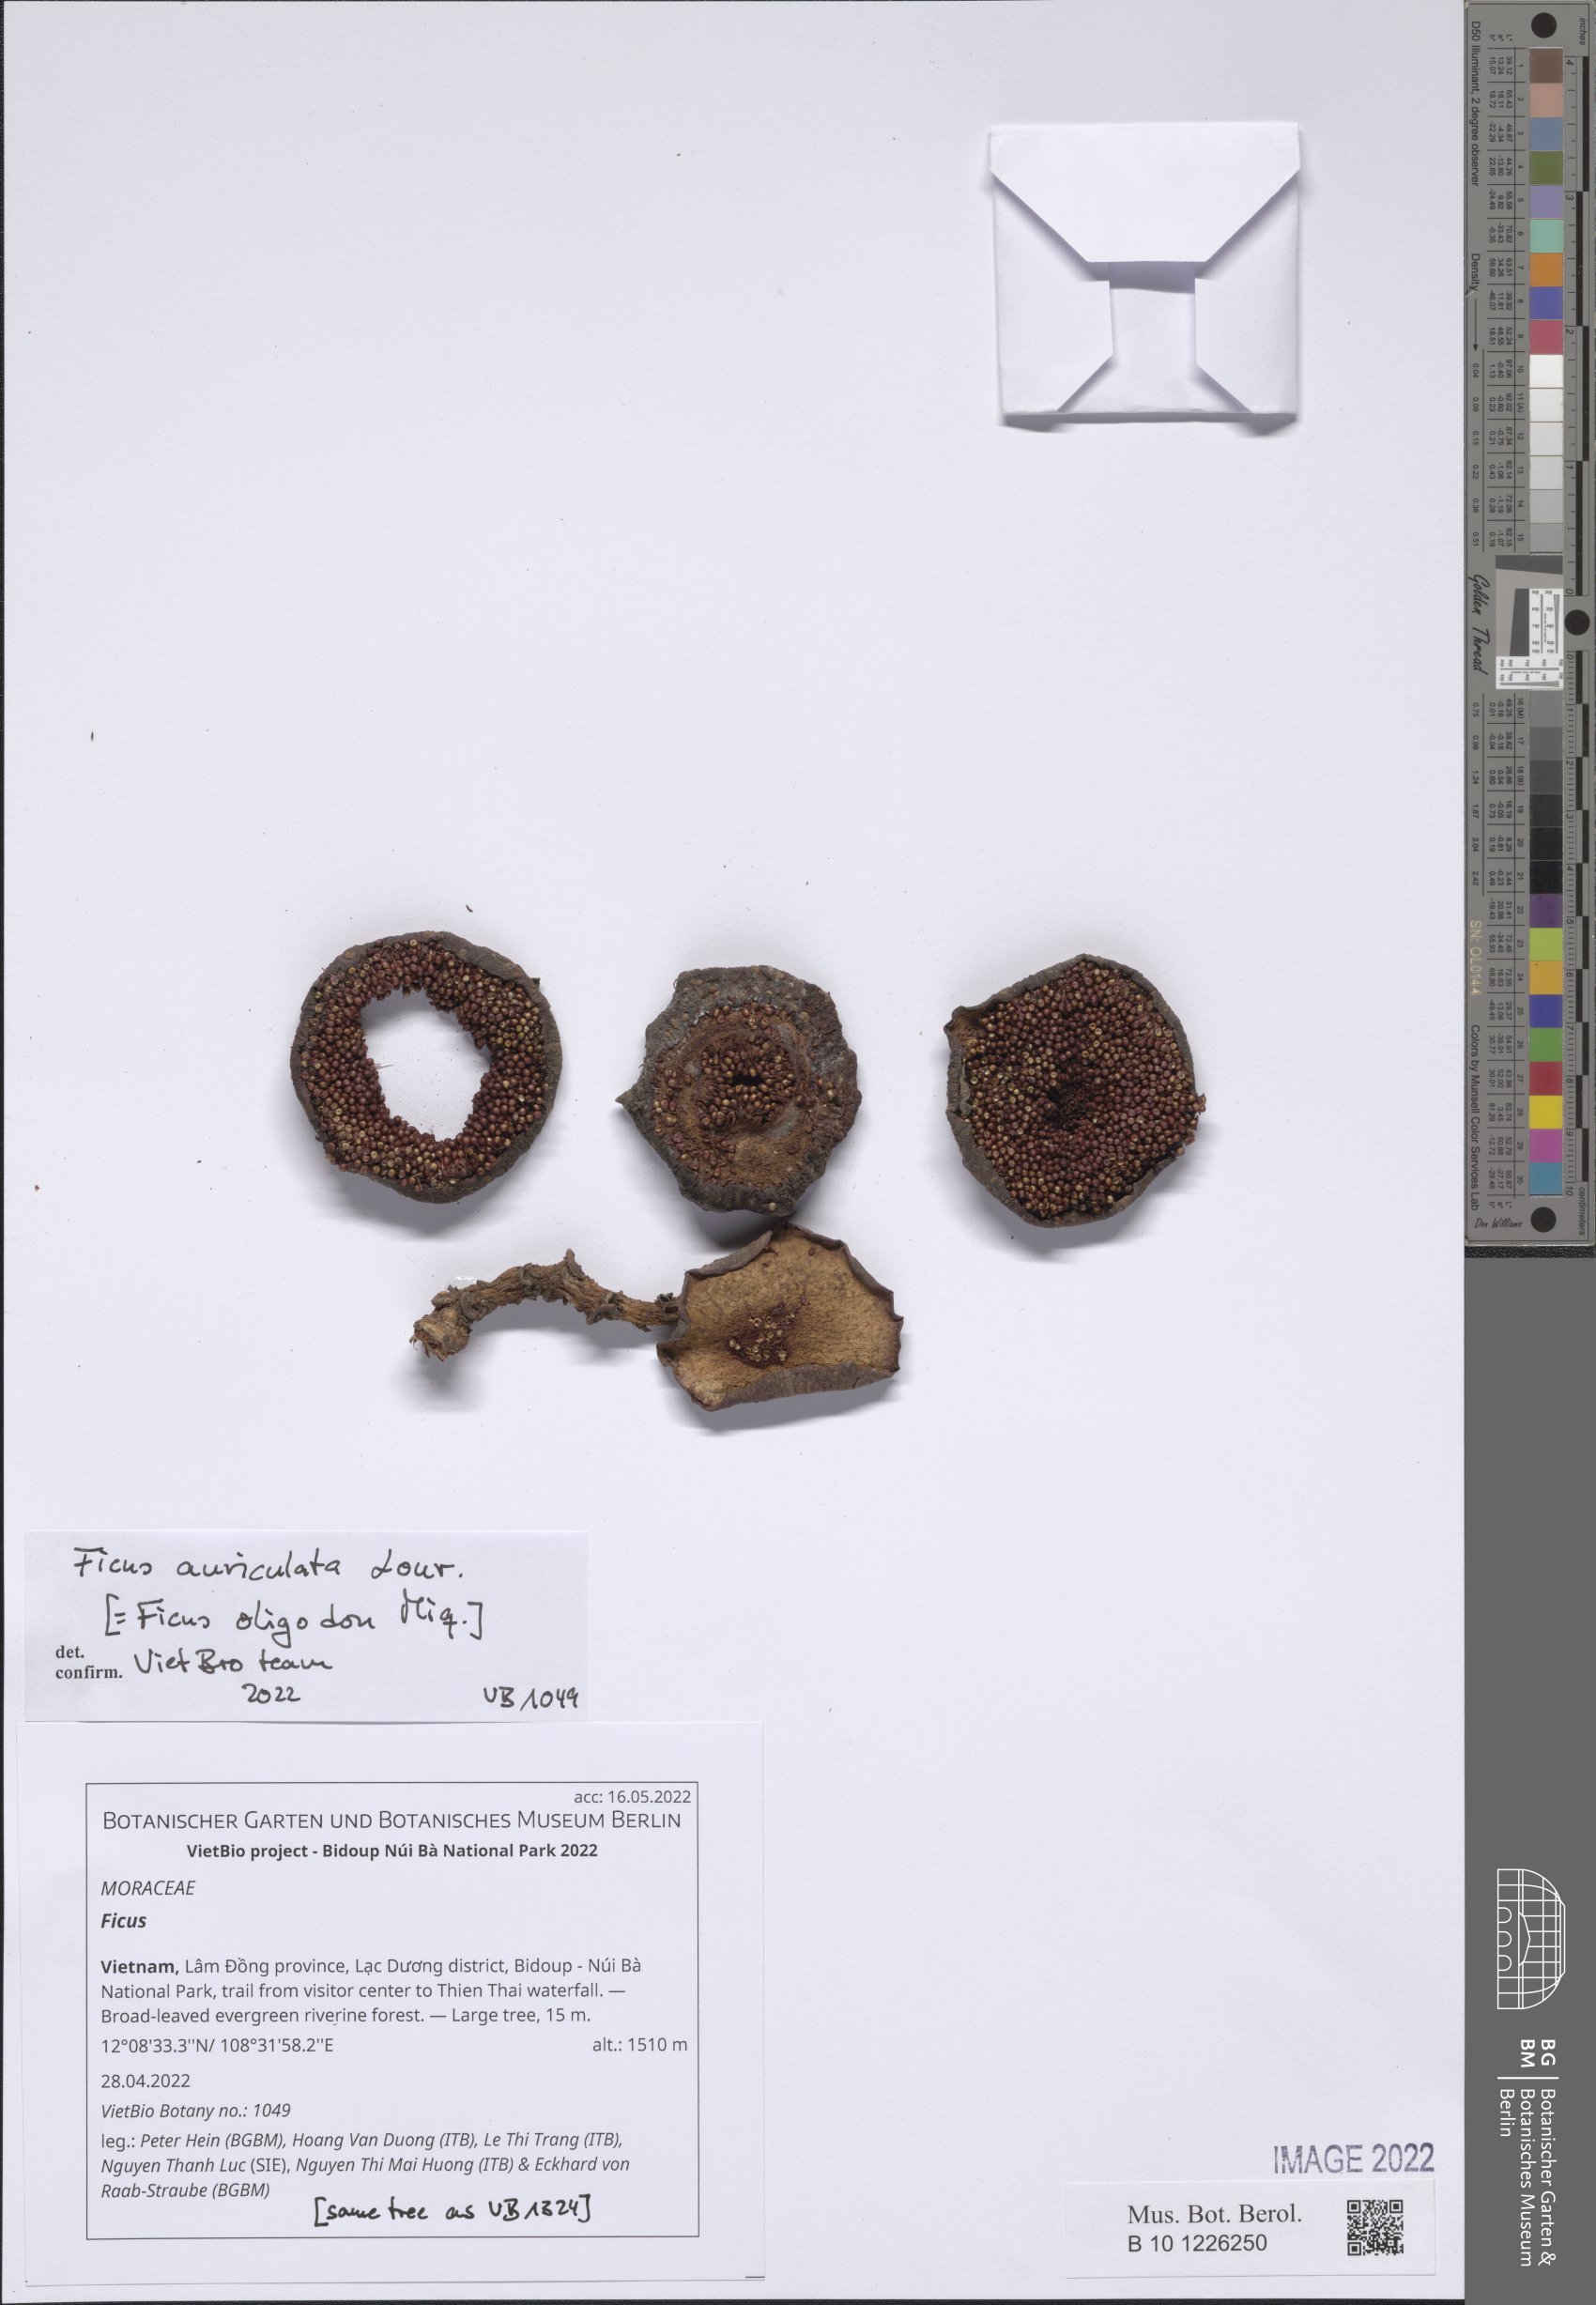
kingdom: Plantae
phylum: Tracheophyta
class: Magnoliopsida
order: Rosales
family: Moraceae
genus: Ficus
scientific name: Ficus
